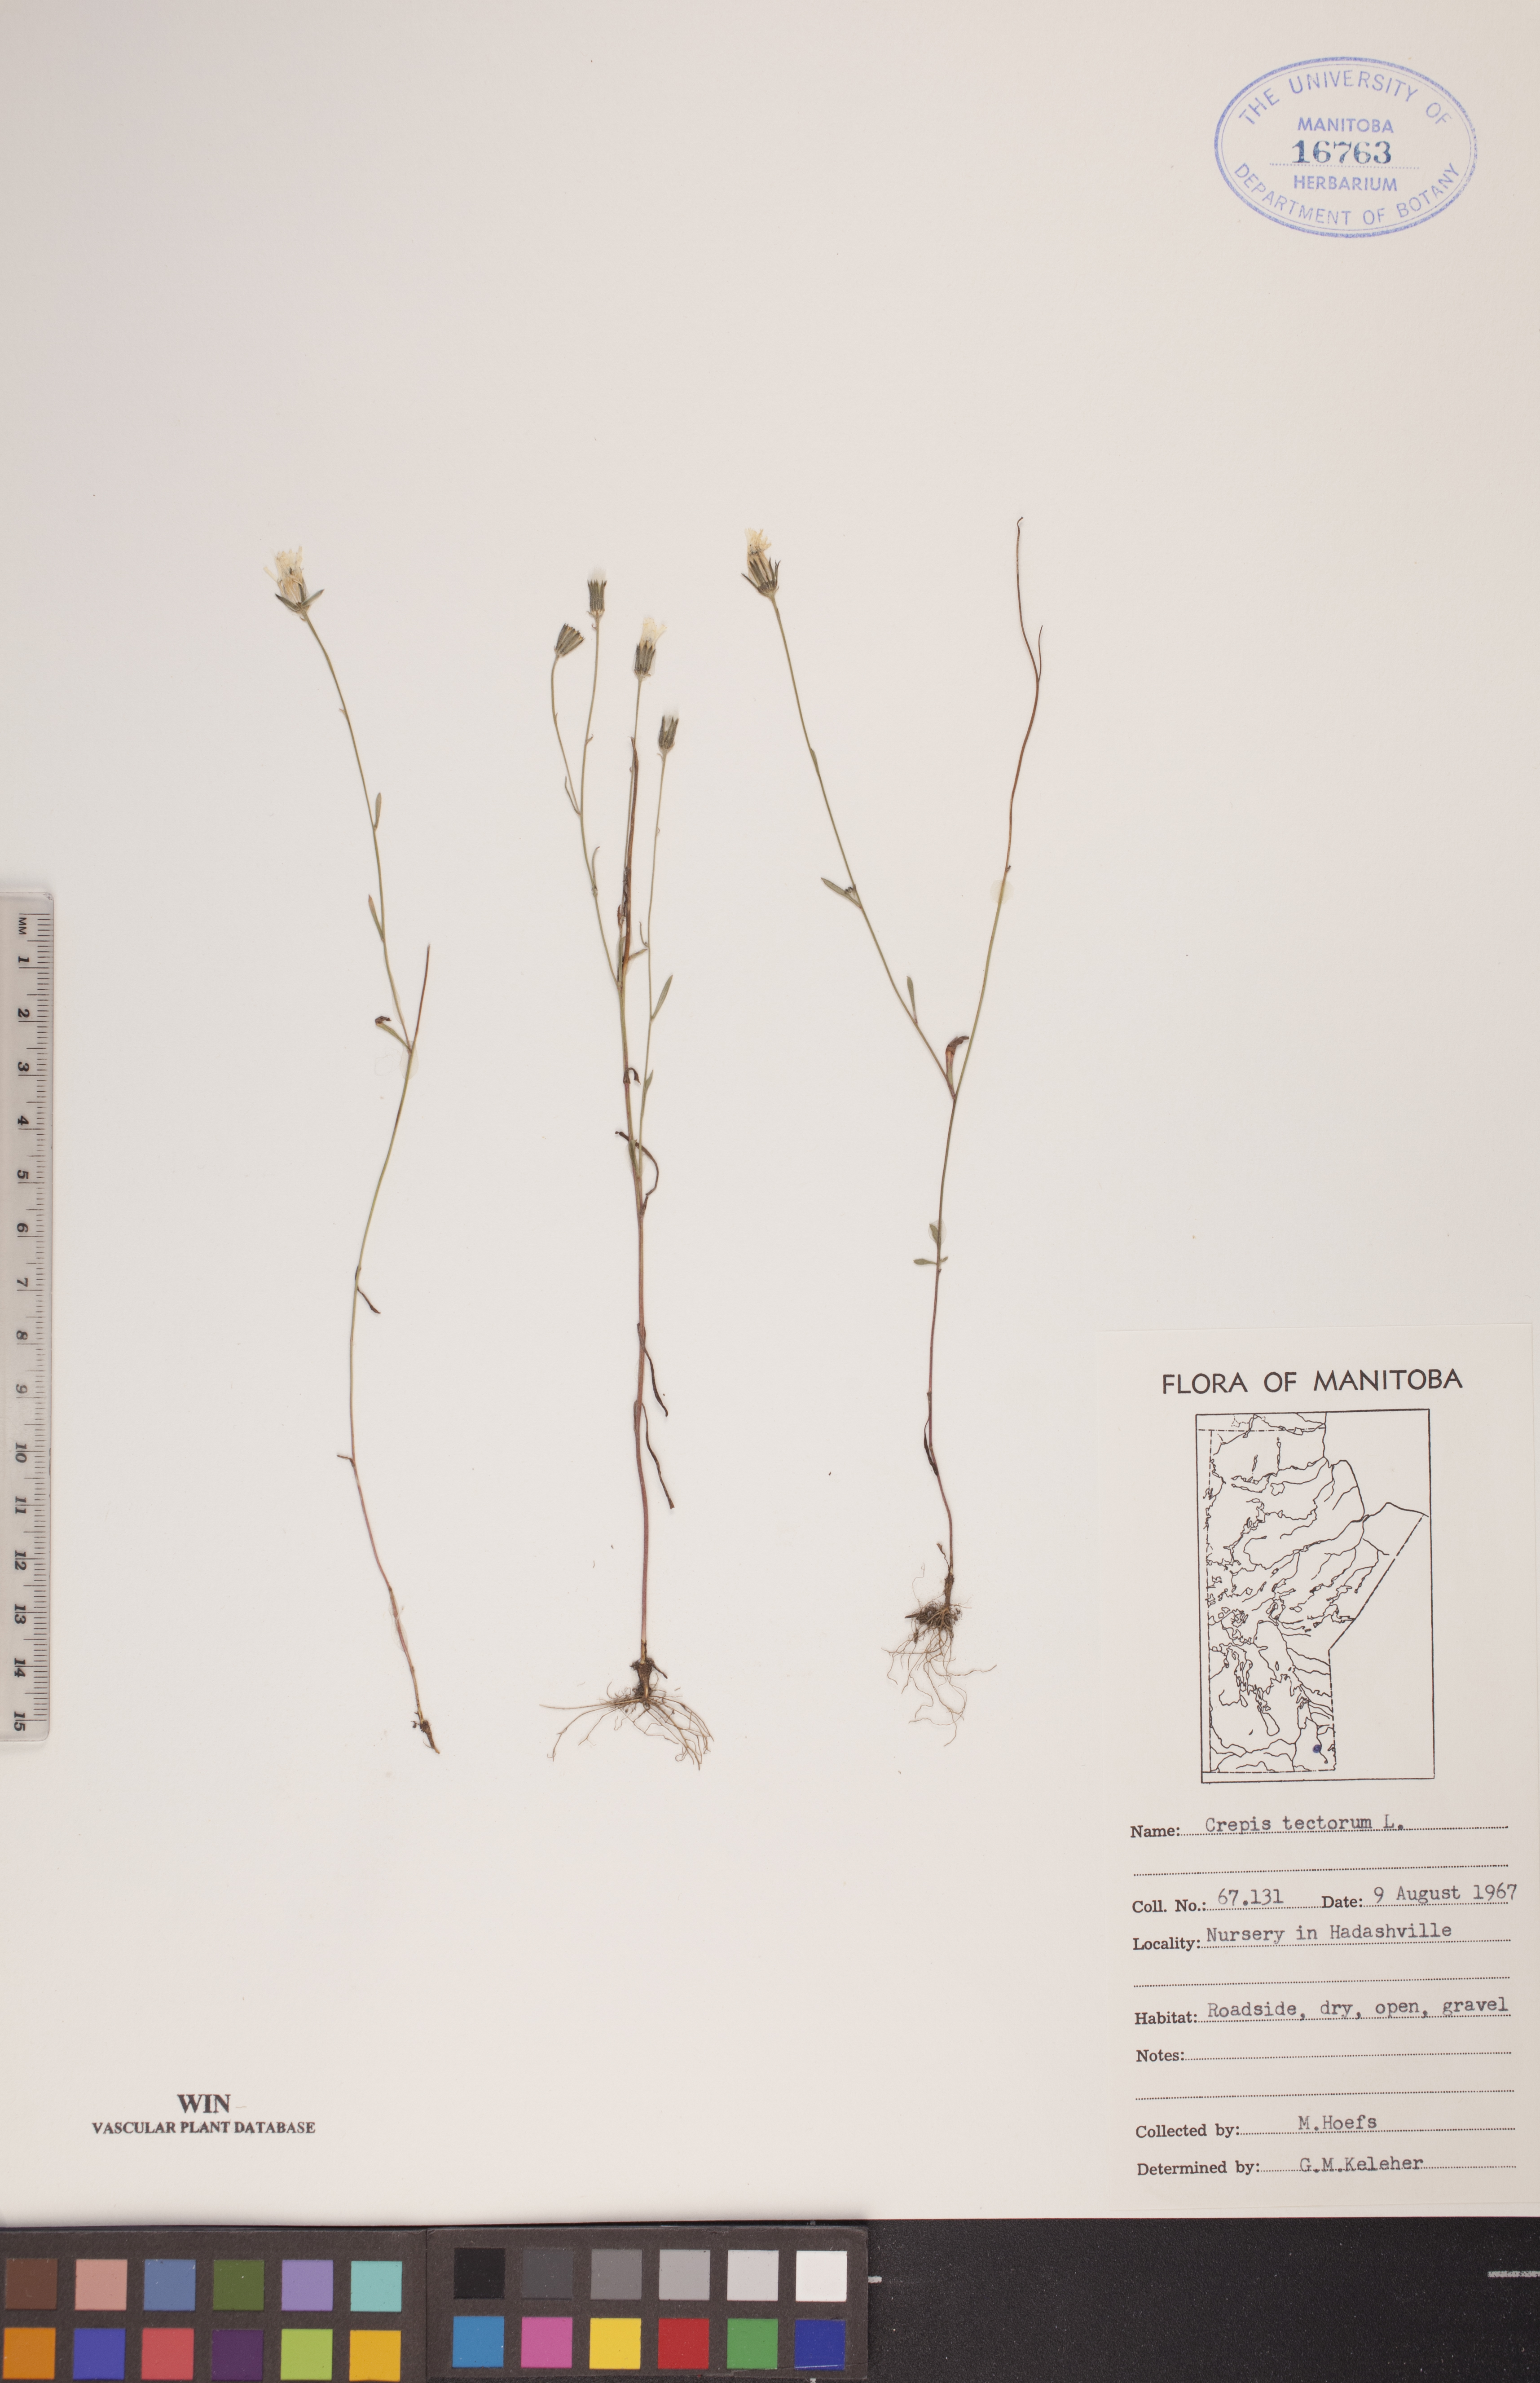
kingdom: Plantae
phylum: Tracheophyta
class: Magnoliopsida
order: Asterales
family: Asteraceae
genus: Crepis
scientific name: Crepis tectorum
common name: Narrow-leaved hawk's-beard
